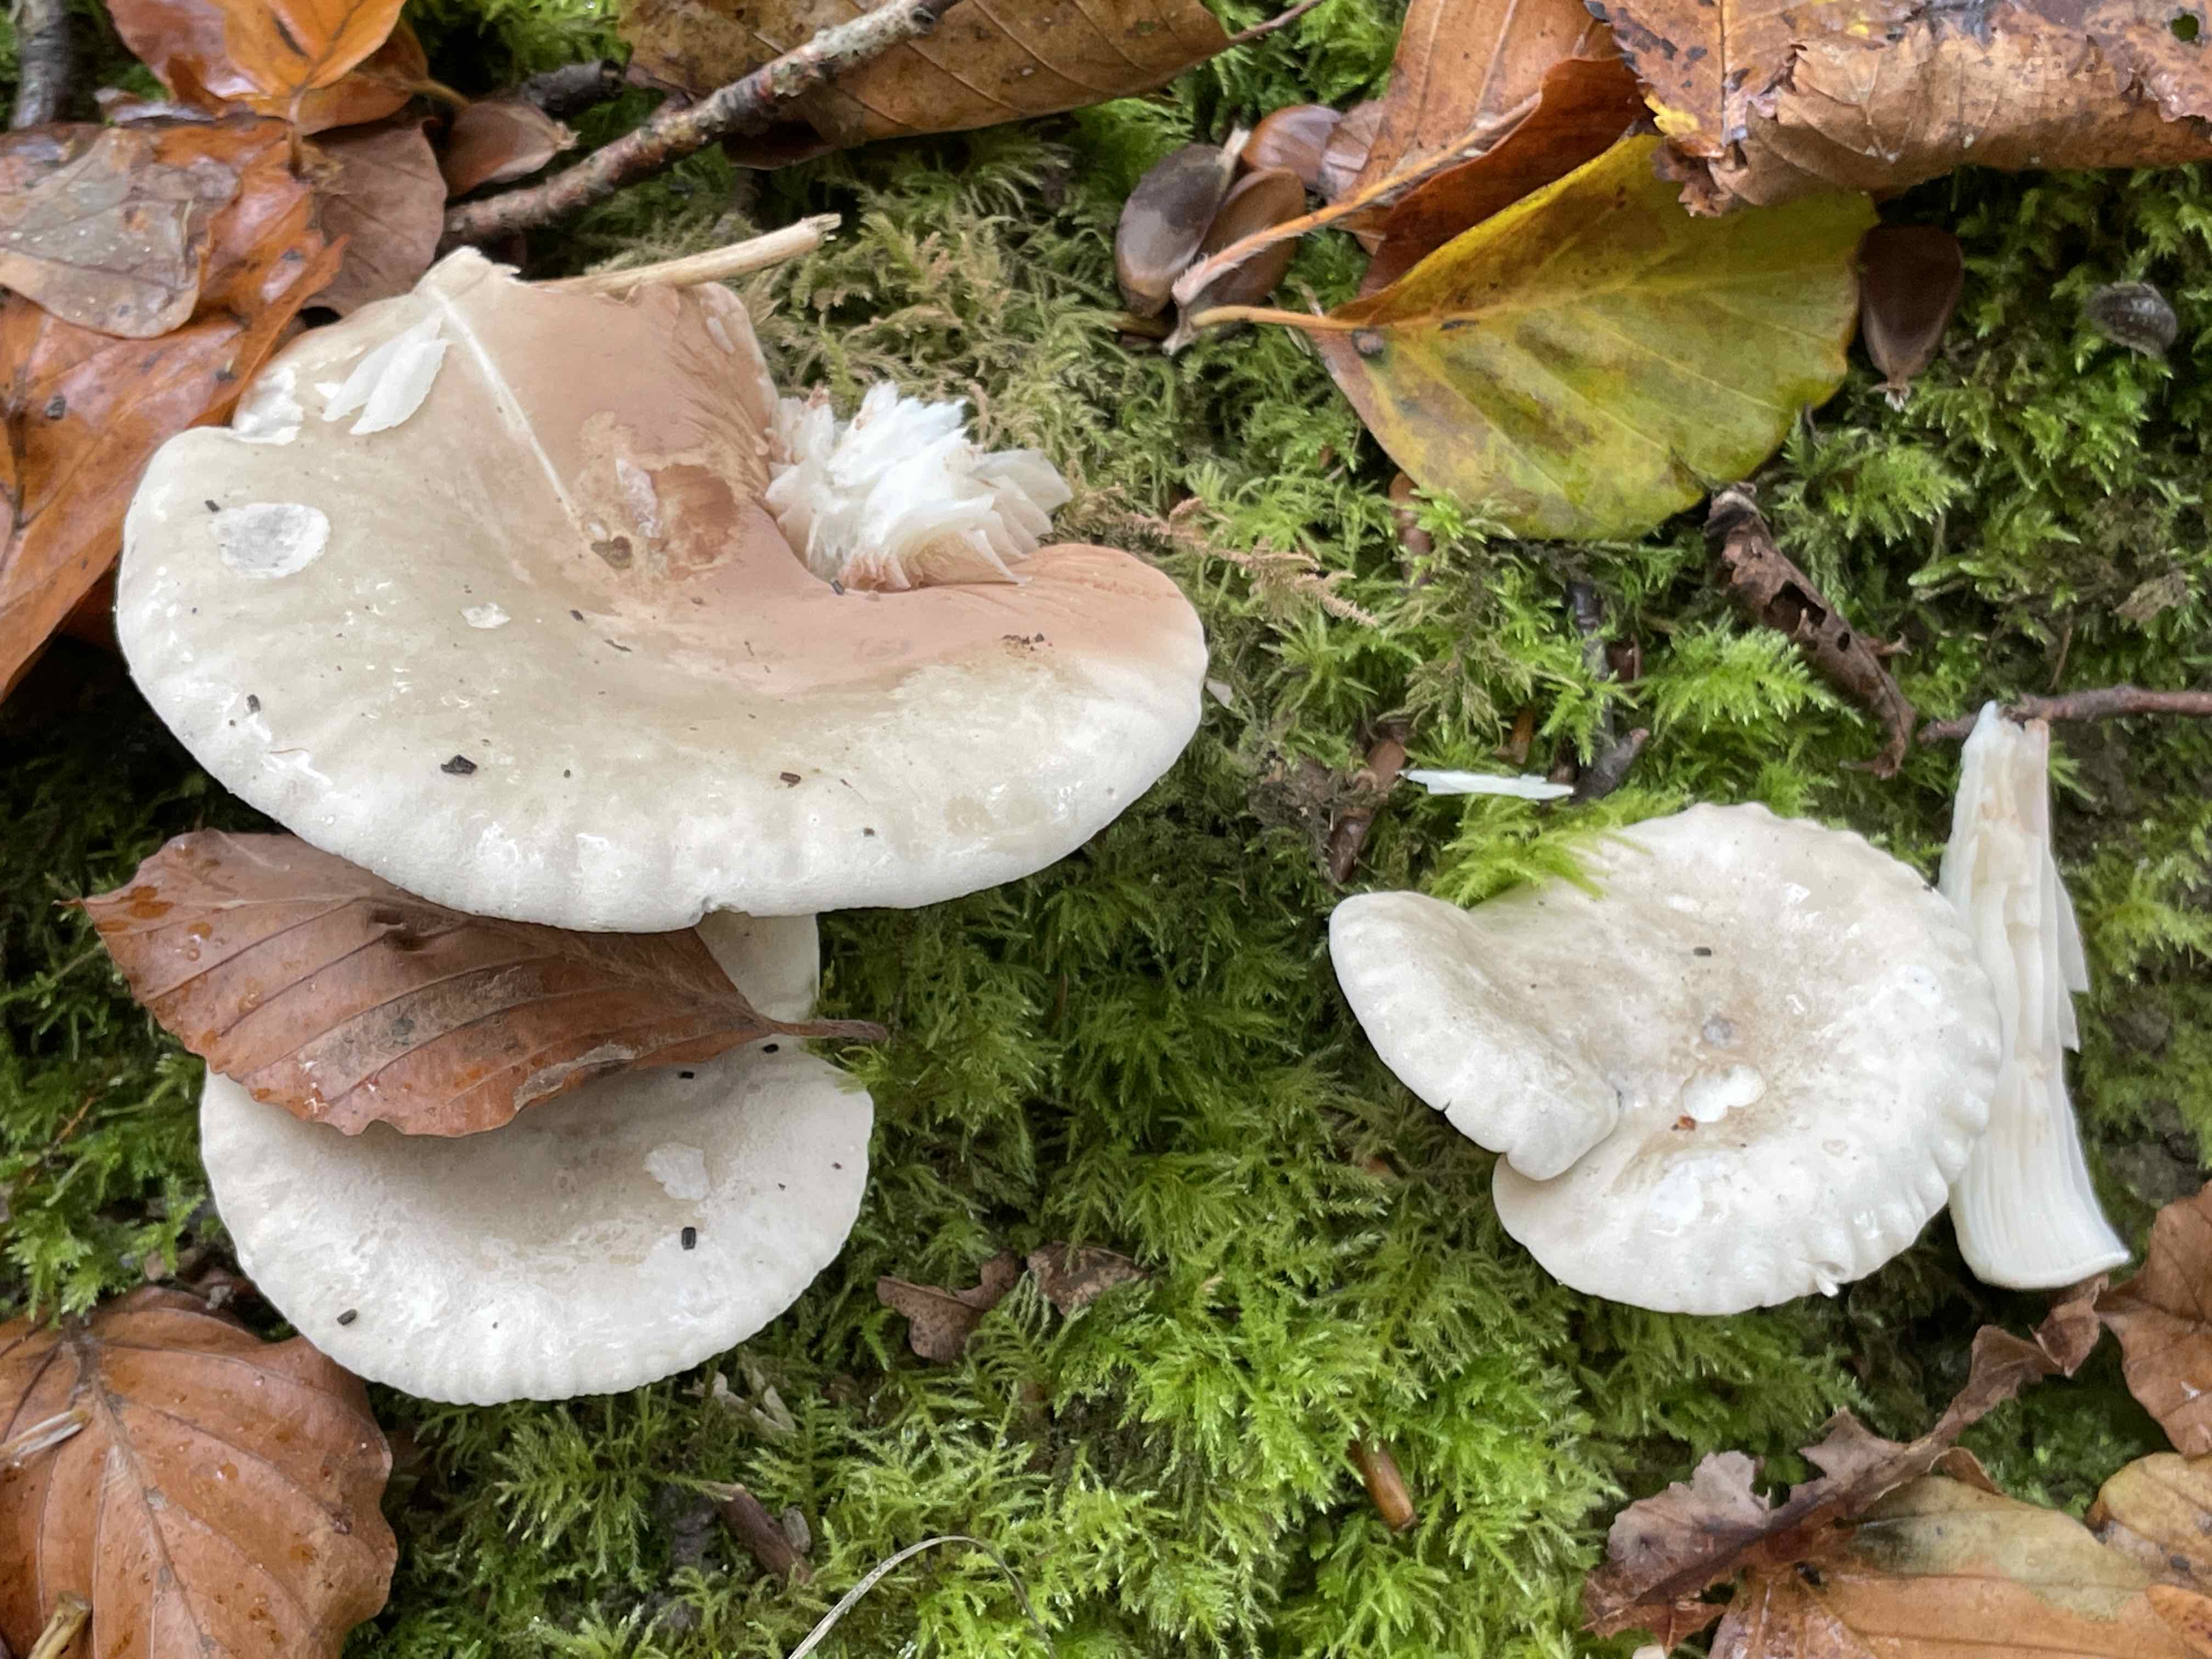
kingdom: Fungi
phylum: Basidiomycota
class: Agaricomycetes
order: Agaricales
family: Entolomataceae
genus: Clitopilus
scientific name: Clitopilus prunulus
